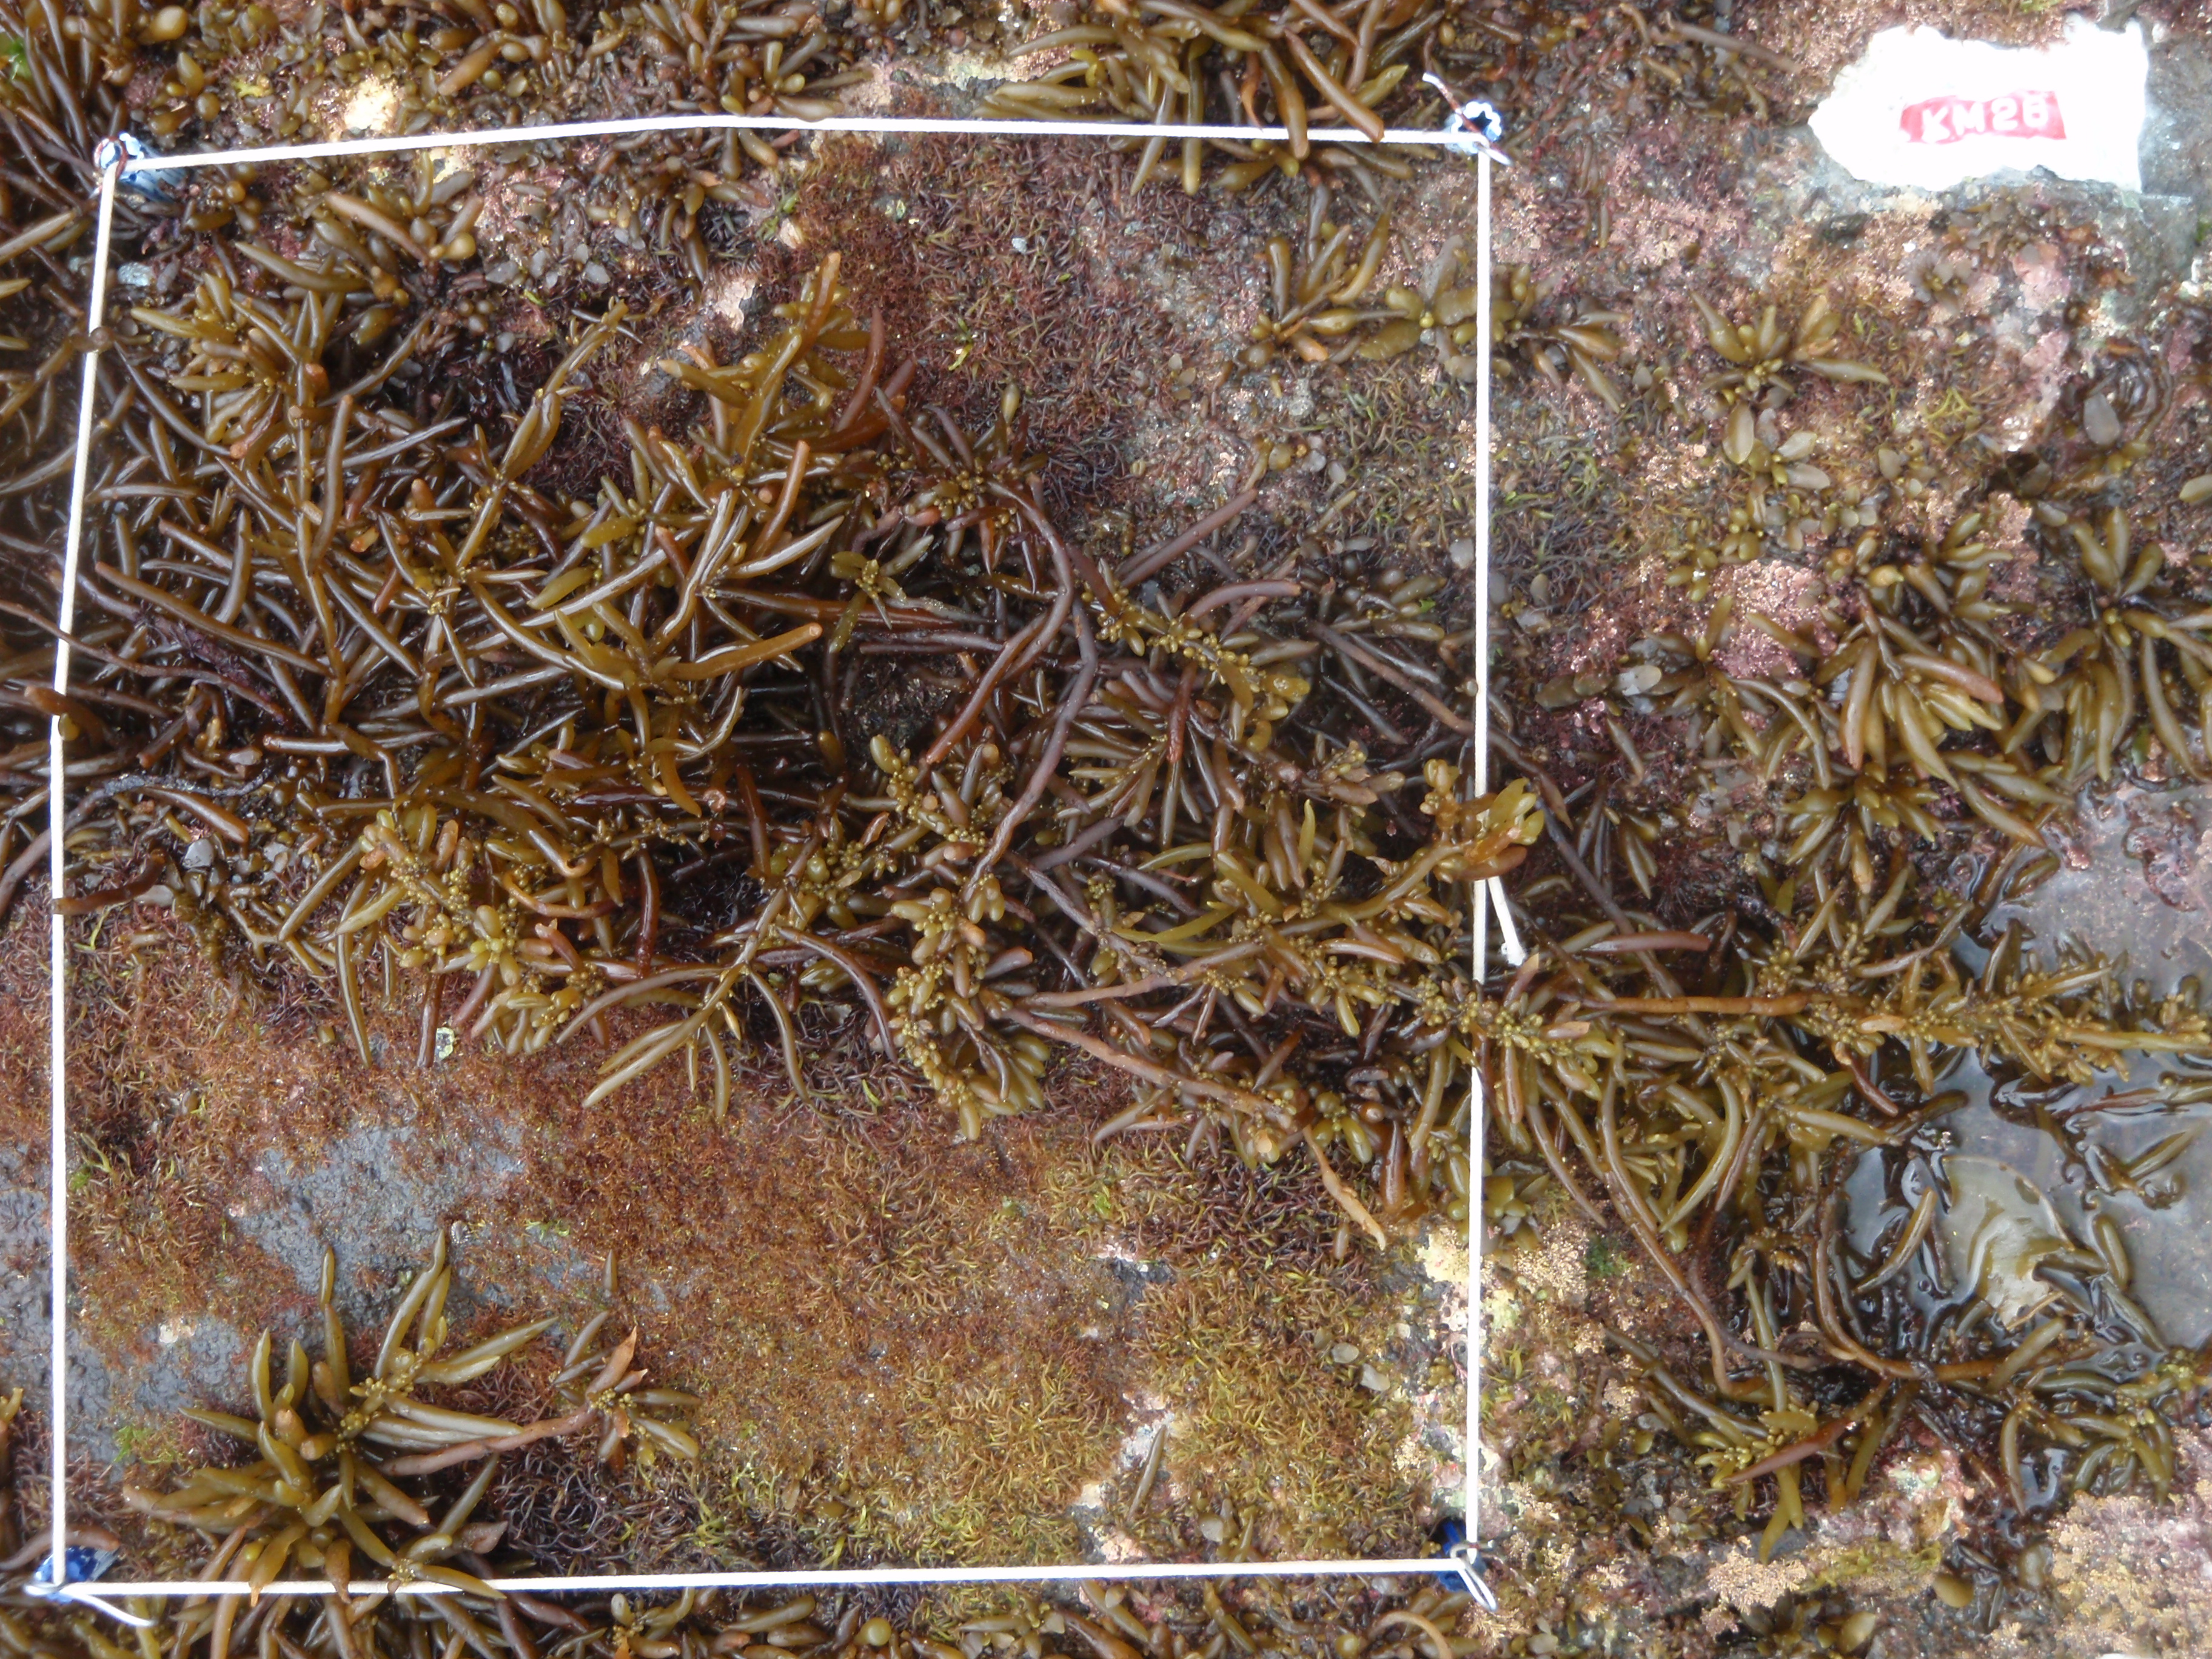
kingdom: Animalia
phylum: Arthropoda
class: Maxillopoda
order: Sessilia
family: Chthamalidae
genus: Chthamalus
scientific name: Chthamalus challengeri
